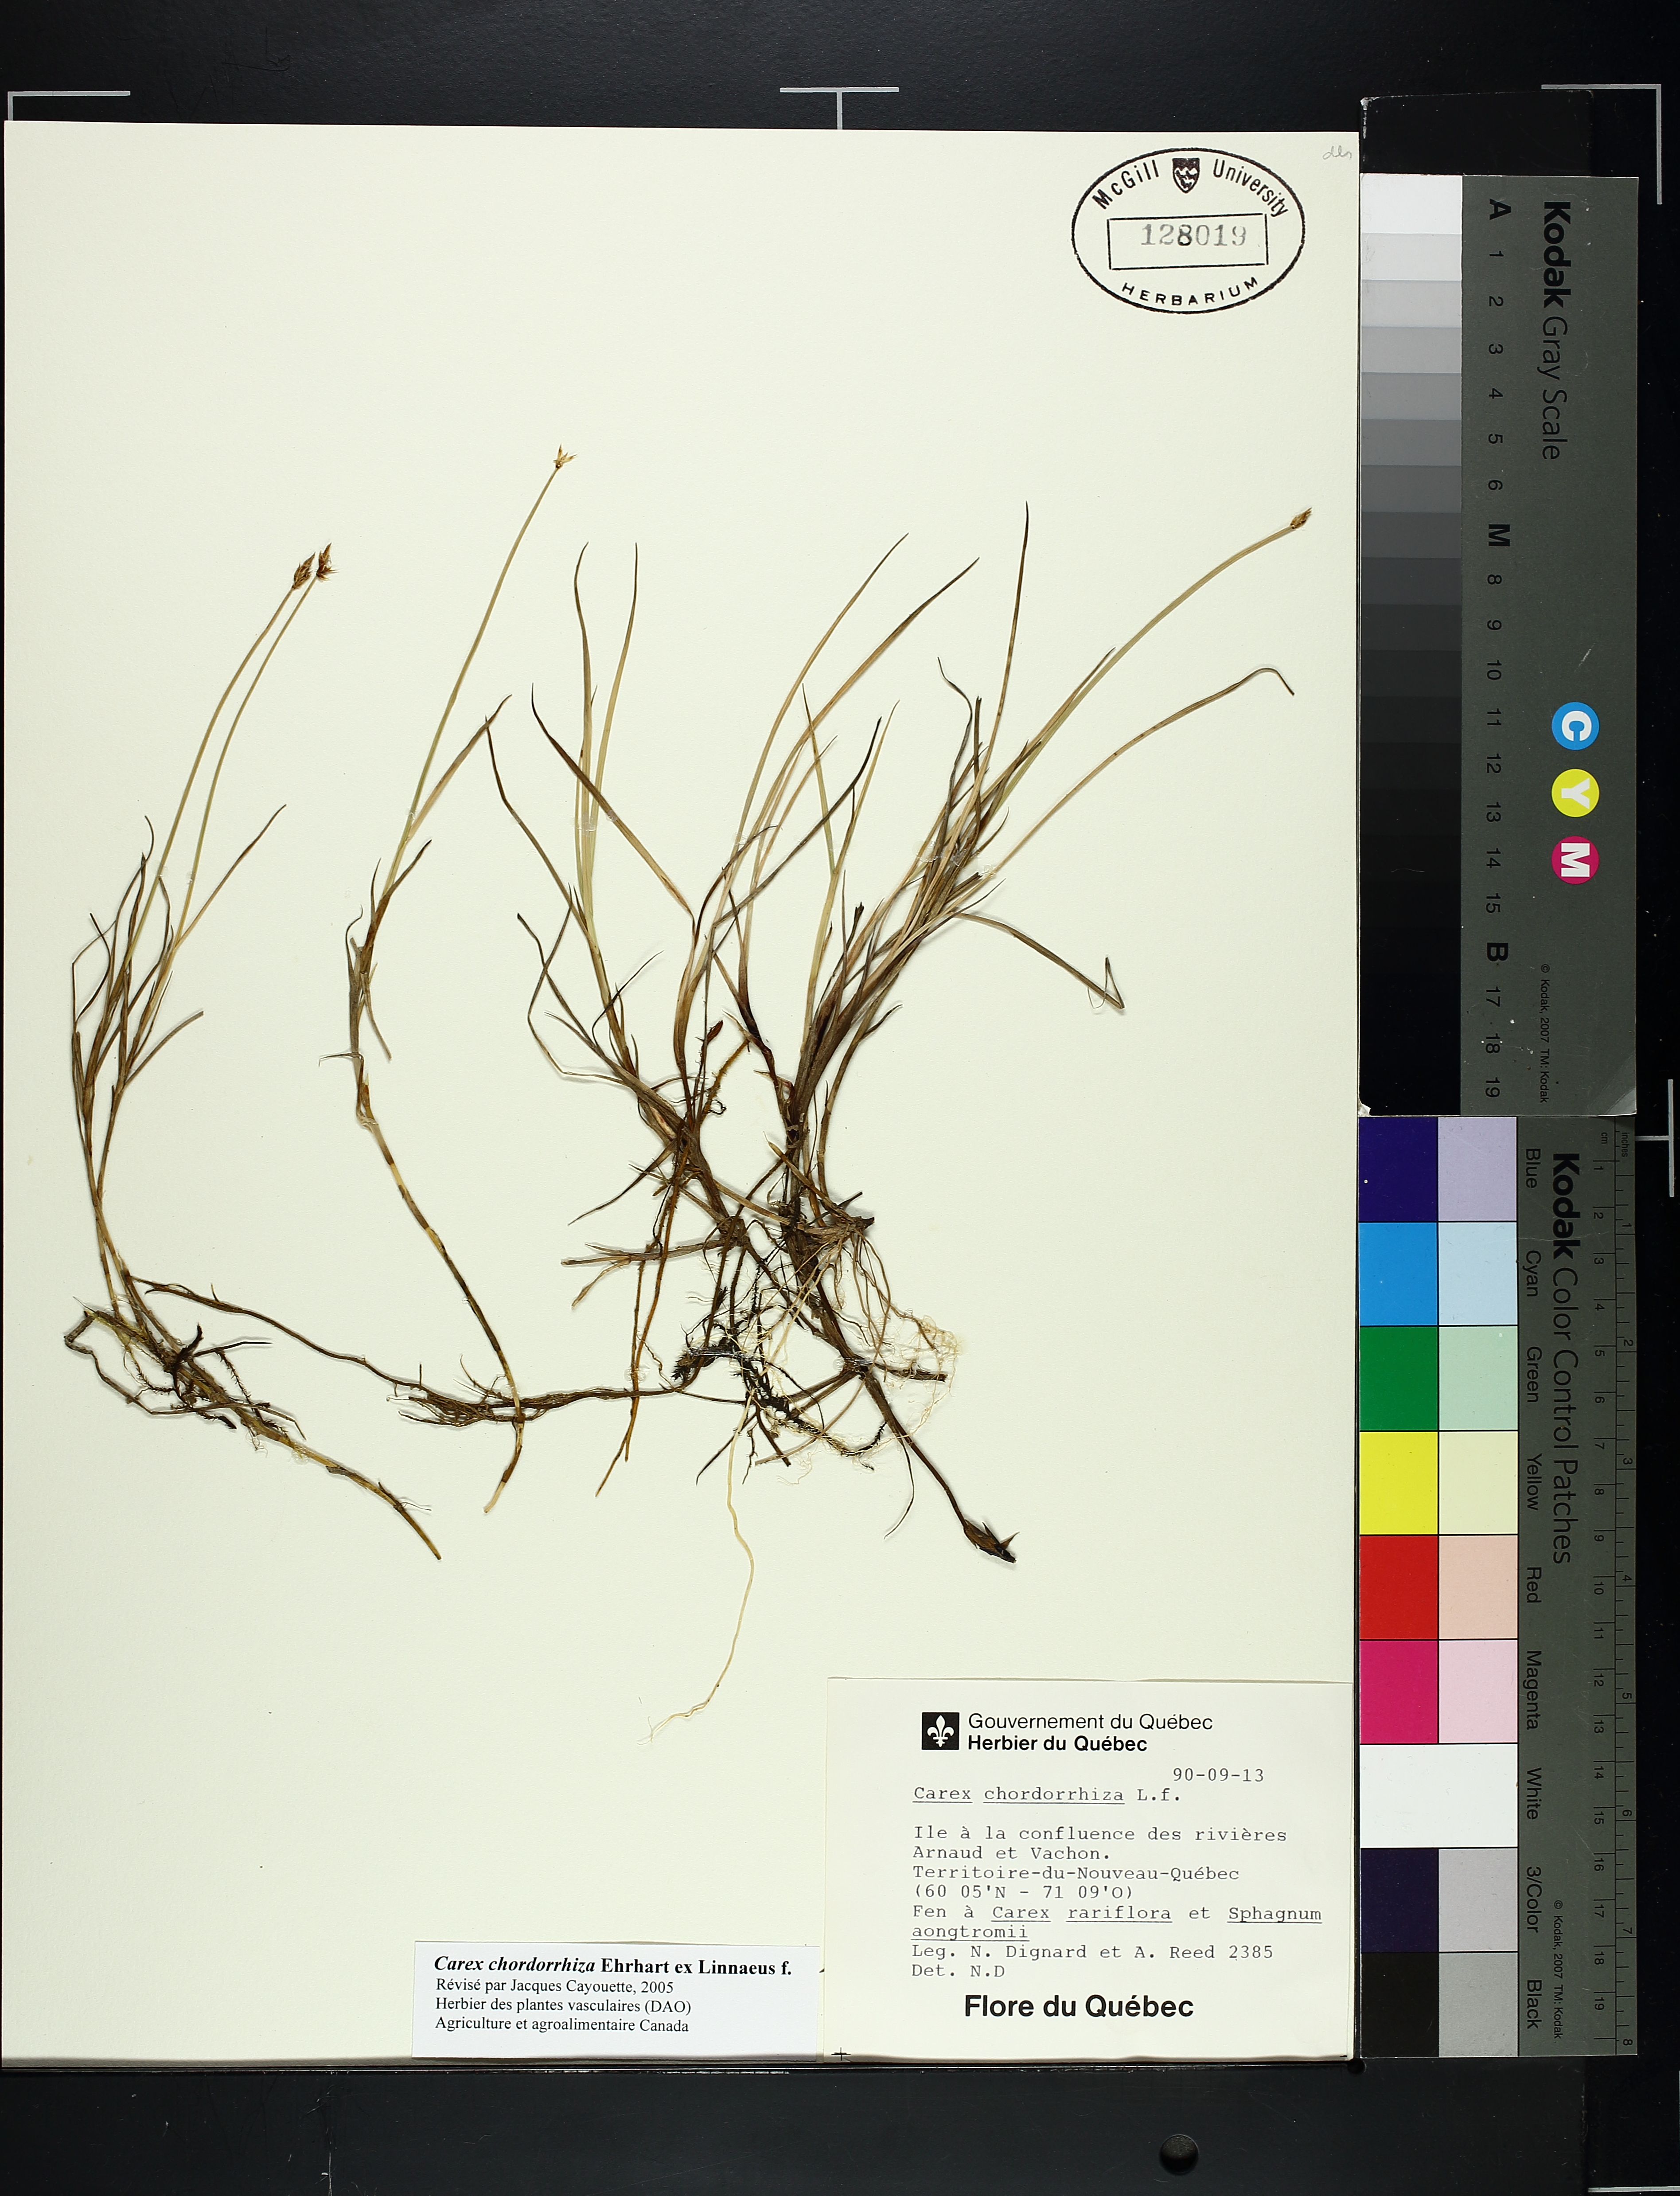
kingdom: Plantae
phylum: Tracheophyta
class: Liliopsida
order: Poales
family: Cyperaceae
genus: Carex
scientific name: Carex
